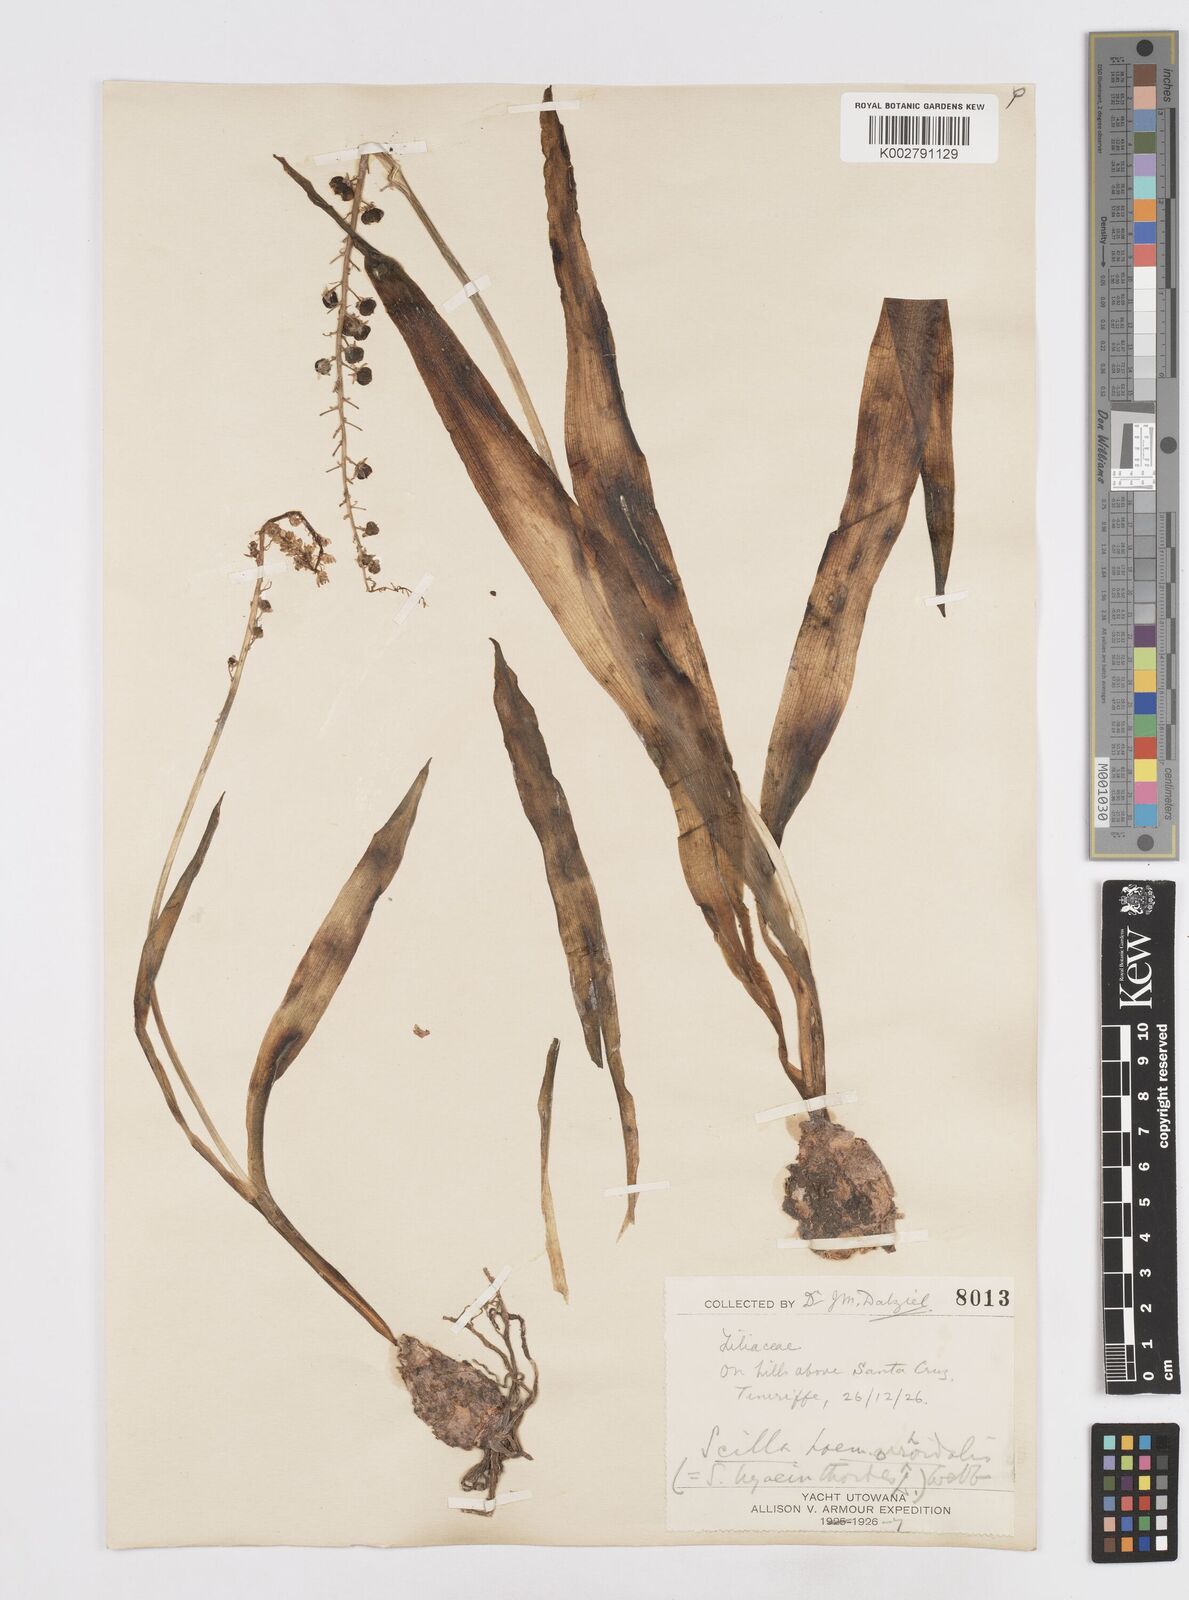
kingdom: Plantae
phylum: Tracheophyta
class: Liliopsida
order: Asparagales
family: Asparagaceae
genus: Scilla
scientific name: Scilla haemorrhoidalis
